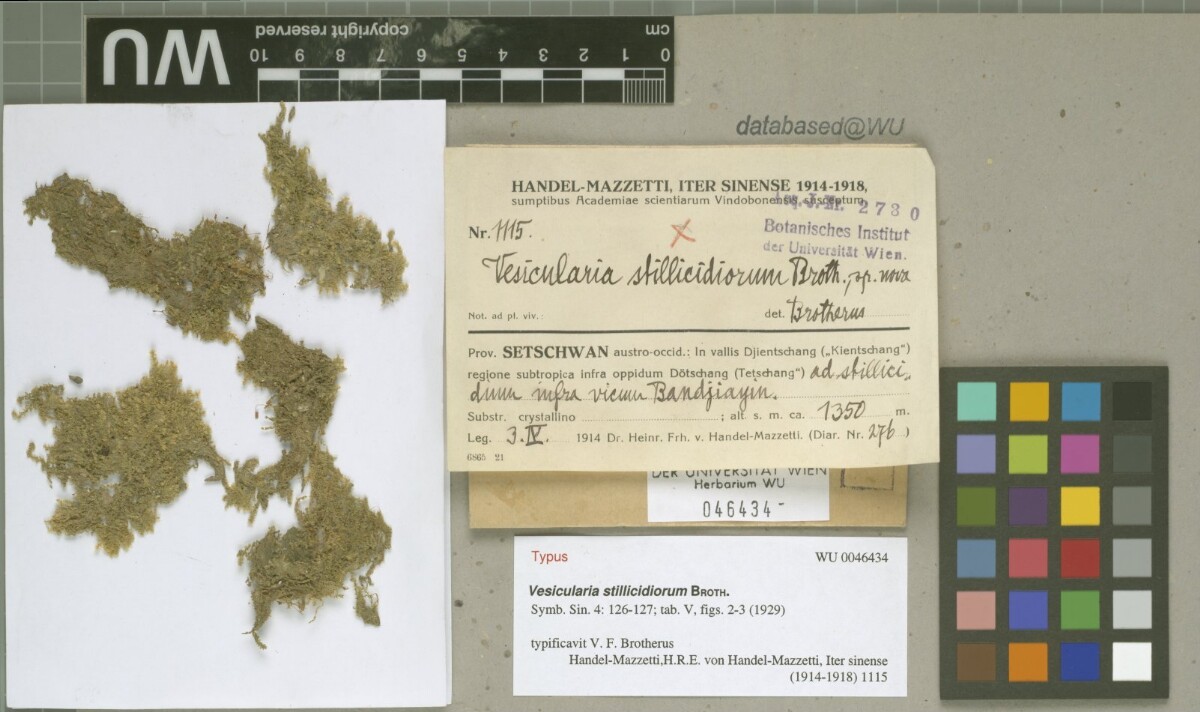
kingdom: Plantae
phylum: Bryophyta
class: Bryopsida
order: Hypnales
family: Hypnaceae
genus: Vesicularia
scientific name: Vesicularia stillicidiorum
